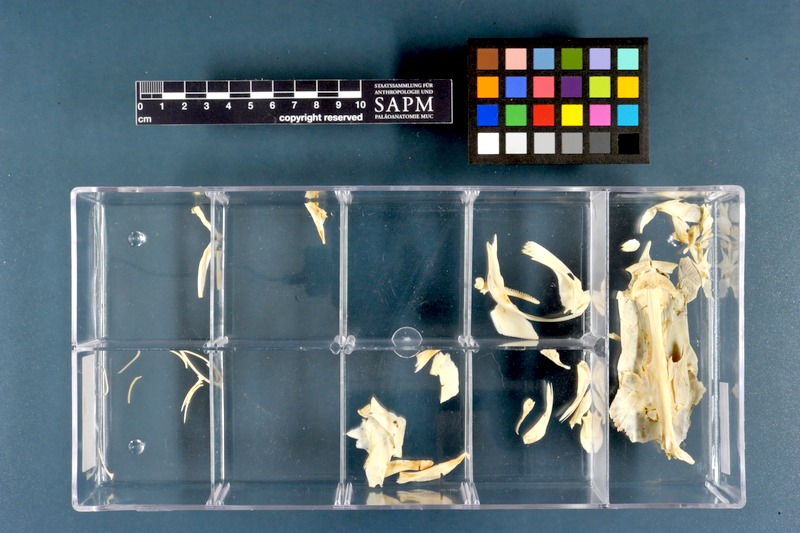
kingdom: Animalia
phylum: Chordata
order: Siluriformes
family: Clariidae
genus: Clarias
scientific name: Clarias gariepinus
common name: African catfish
